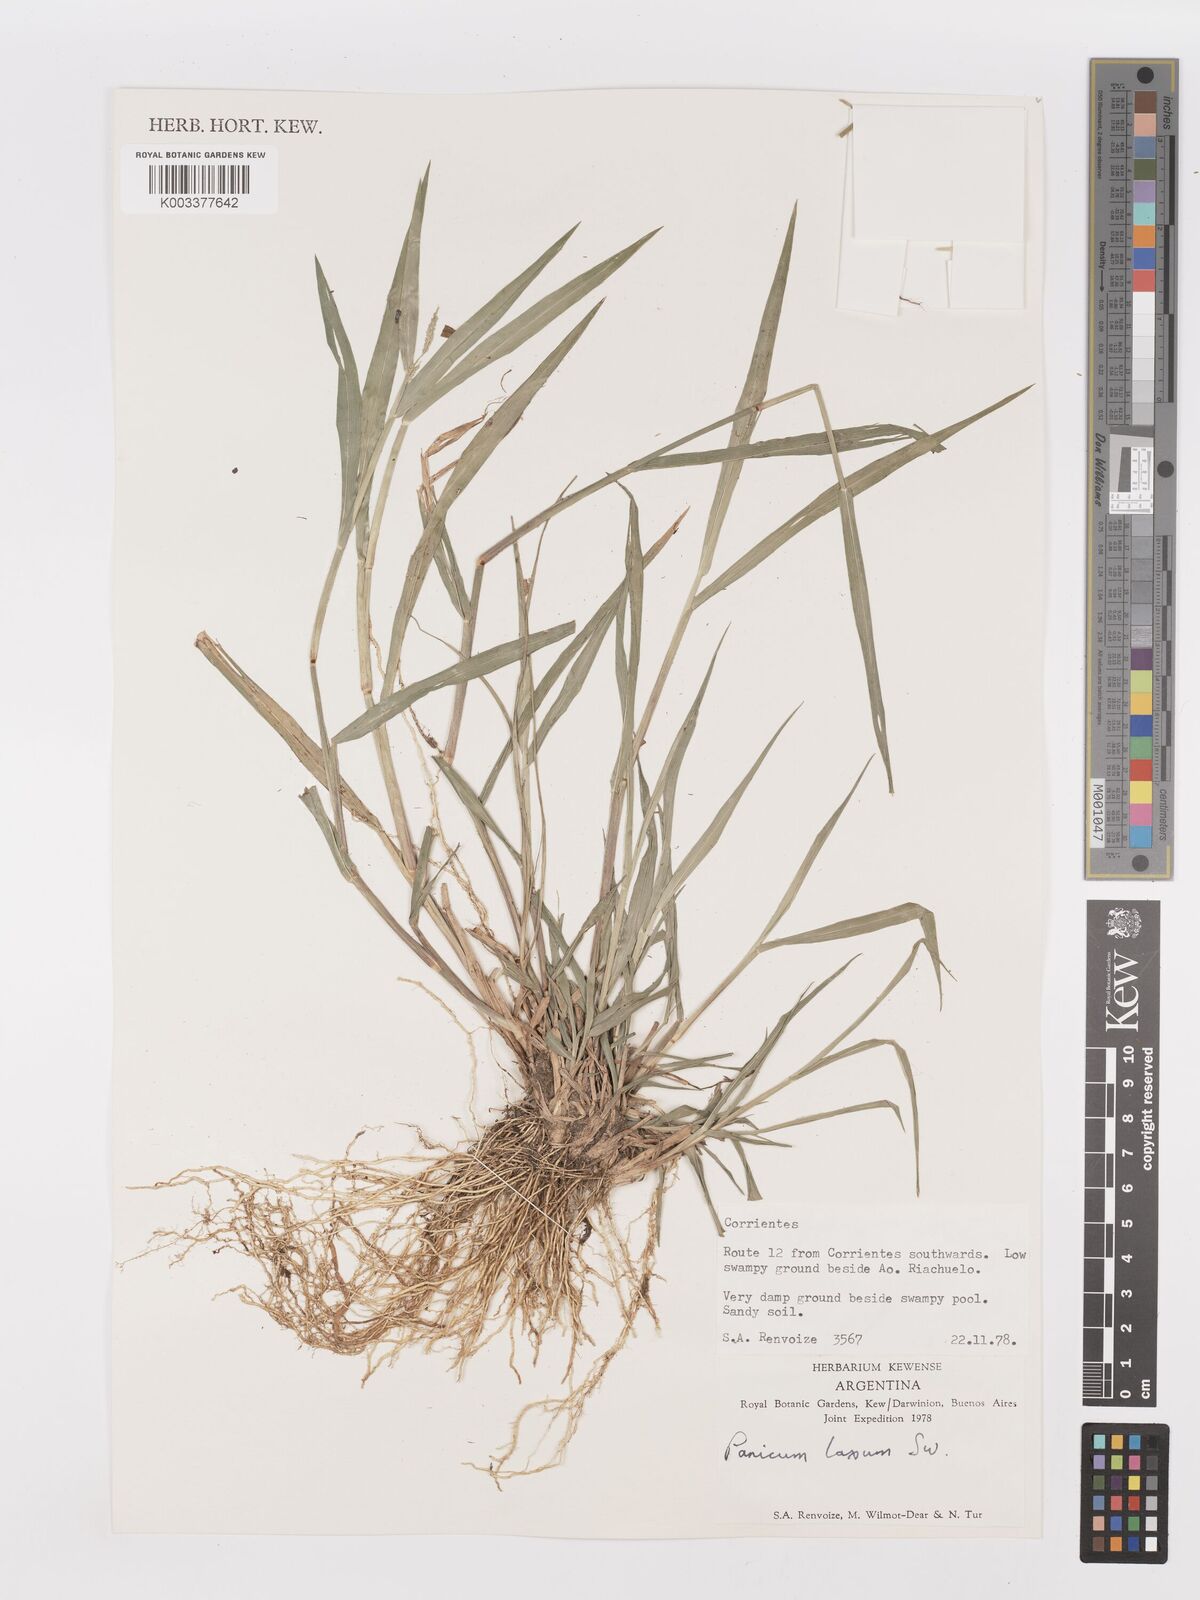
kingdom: Plantae
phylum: Tracheophyta
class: Liliopsida
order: Poales
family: Poaceae
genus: Steinchisma
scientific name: Steinchisma laxum
